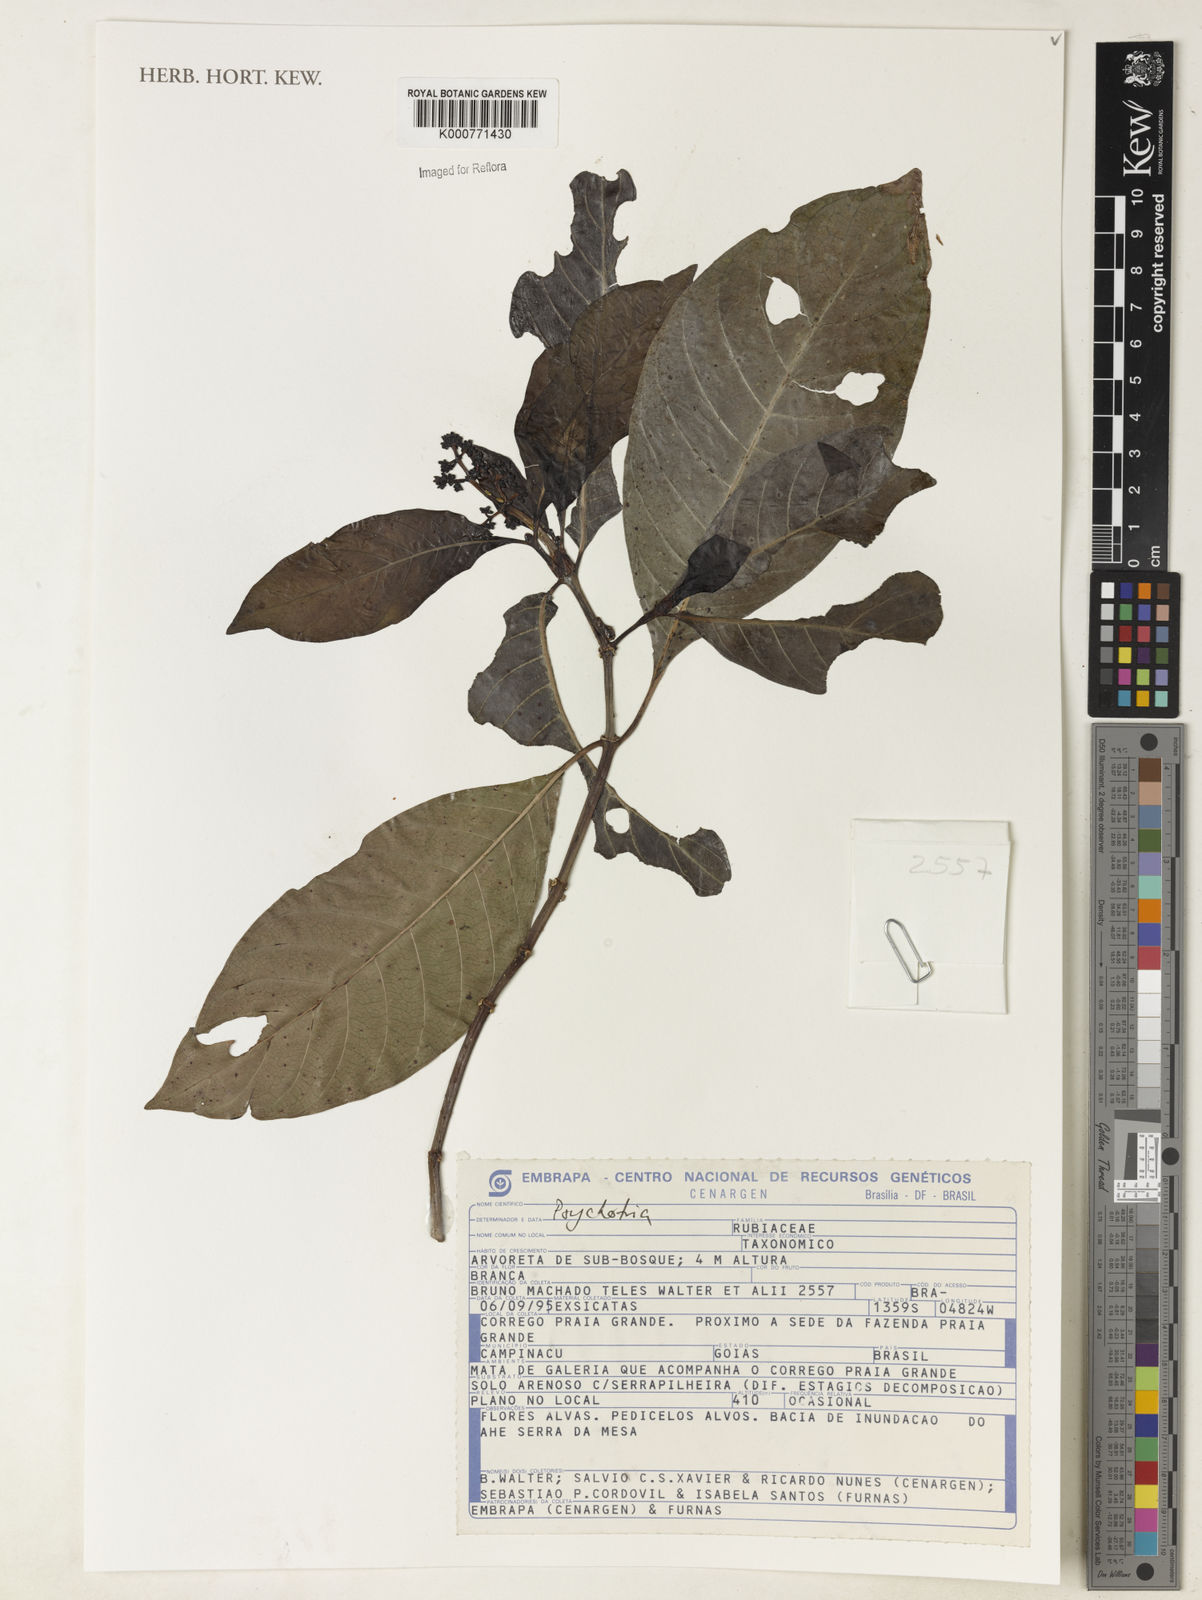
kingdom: Plantae
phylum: Tracheophyta
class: Magnoliopsida
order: Gentianales
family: Rubiaceae
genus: Psychotria
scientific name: Psychotria
